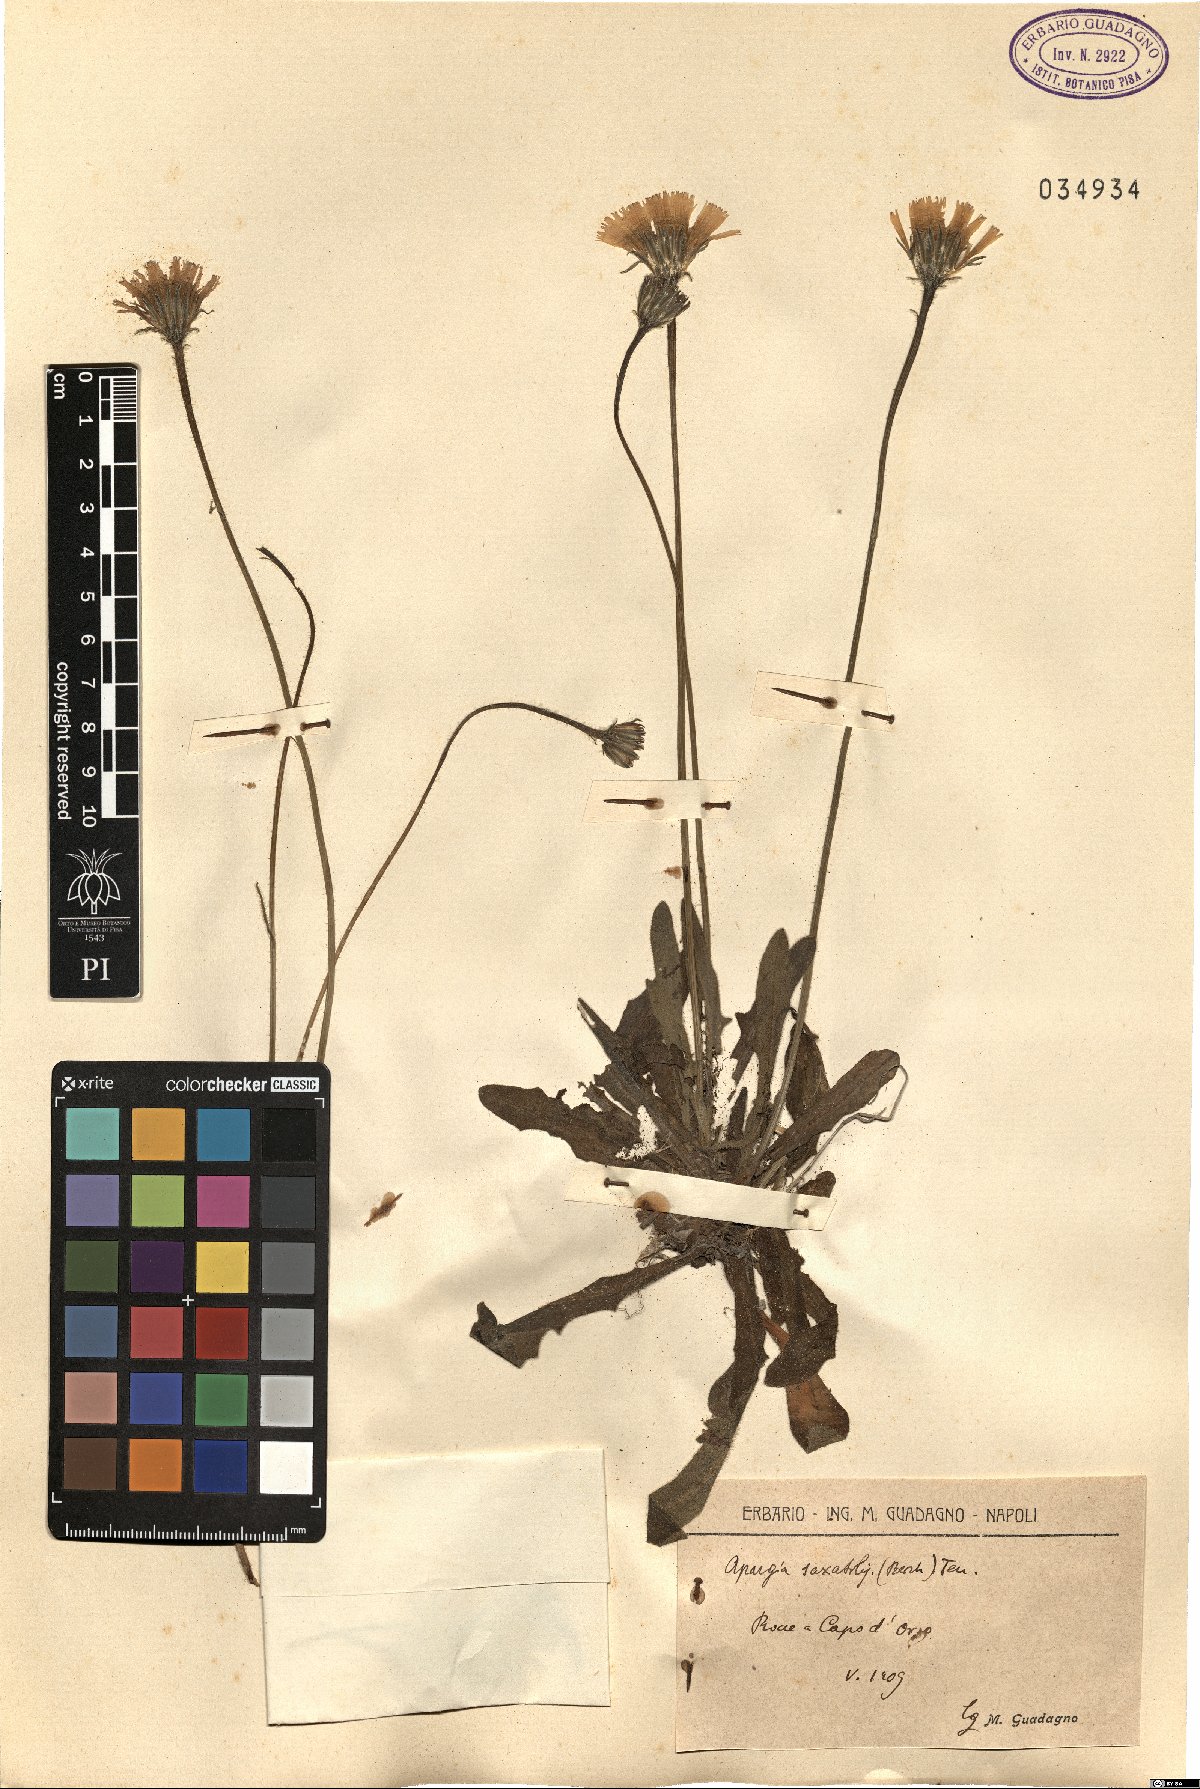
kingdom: Plantae
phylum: Tracheophyta
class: Magnoliopsida
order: Asterales
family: Asteraceae
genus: Leontodon
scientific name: Leontodon crispus
